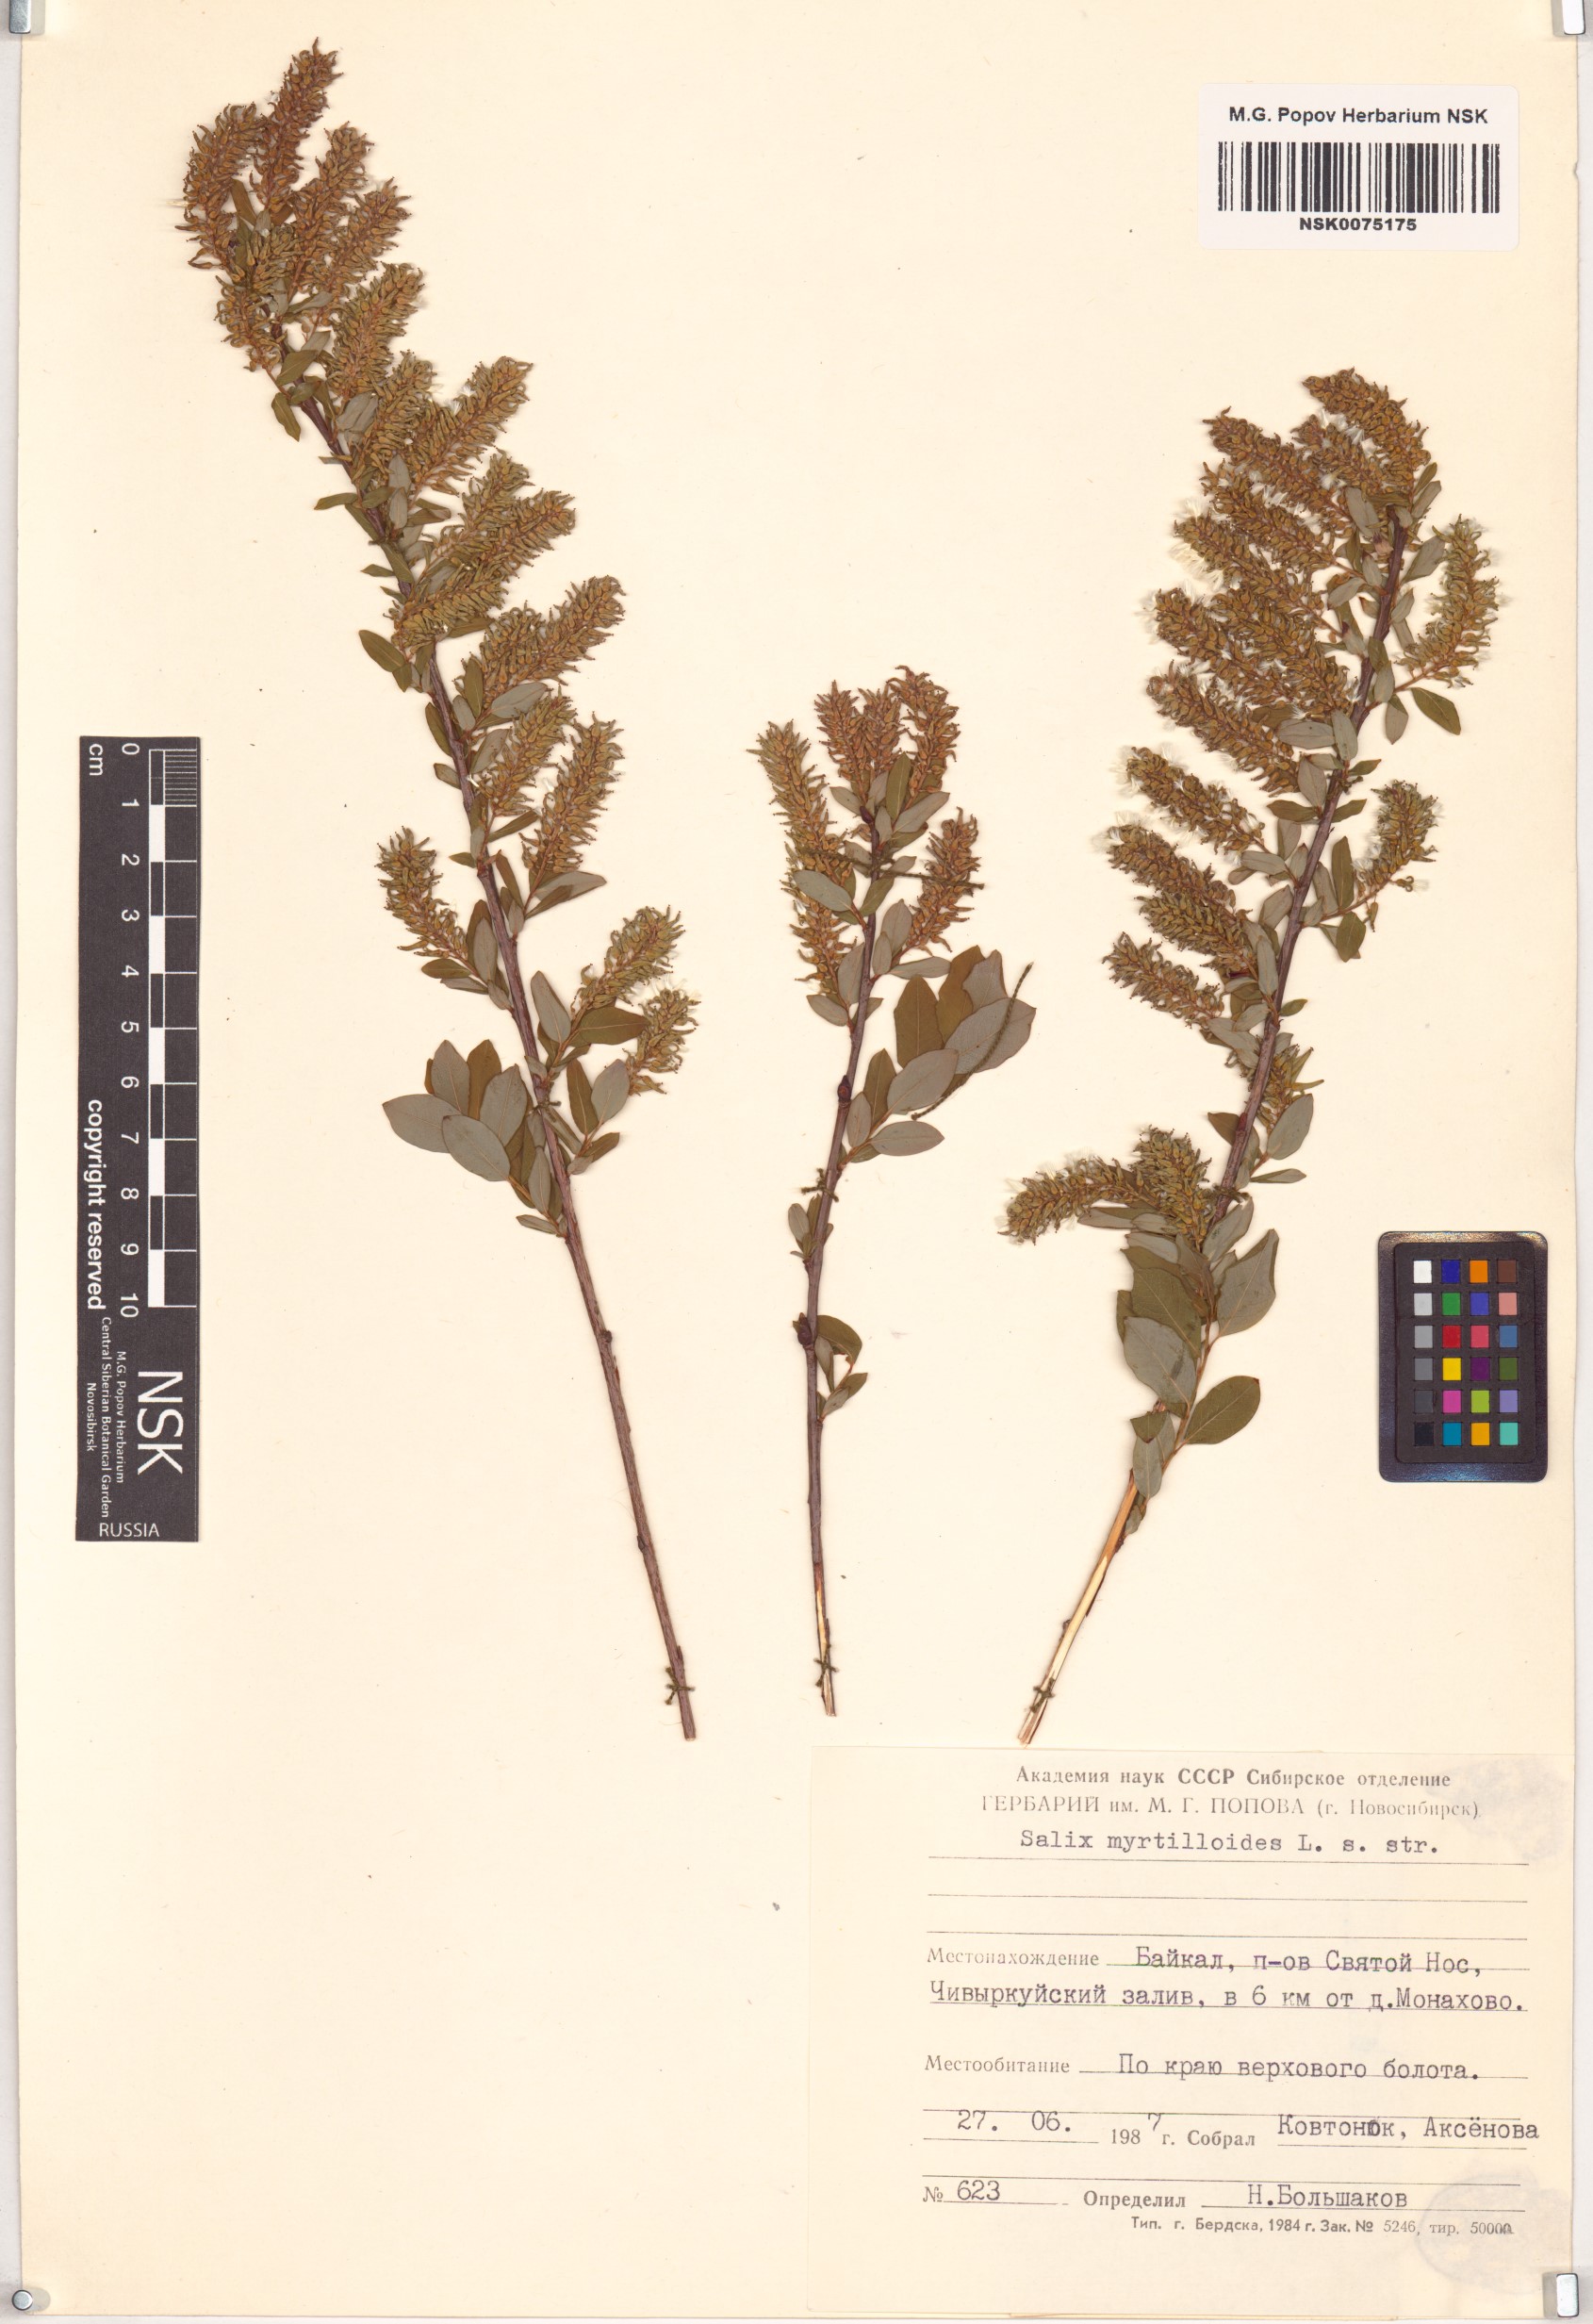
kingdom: Plantae
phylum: Tracheophyta
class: Magnoliopsida
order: Malpighiales
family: Salicaceae
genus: Salix
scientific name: Salix myrtilloides
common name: Myrtle-leaved willow
